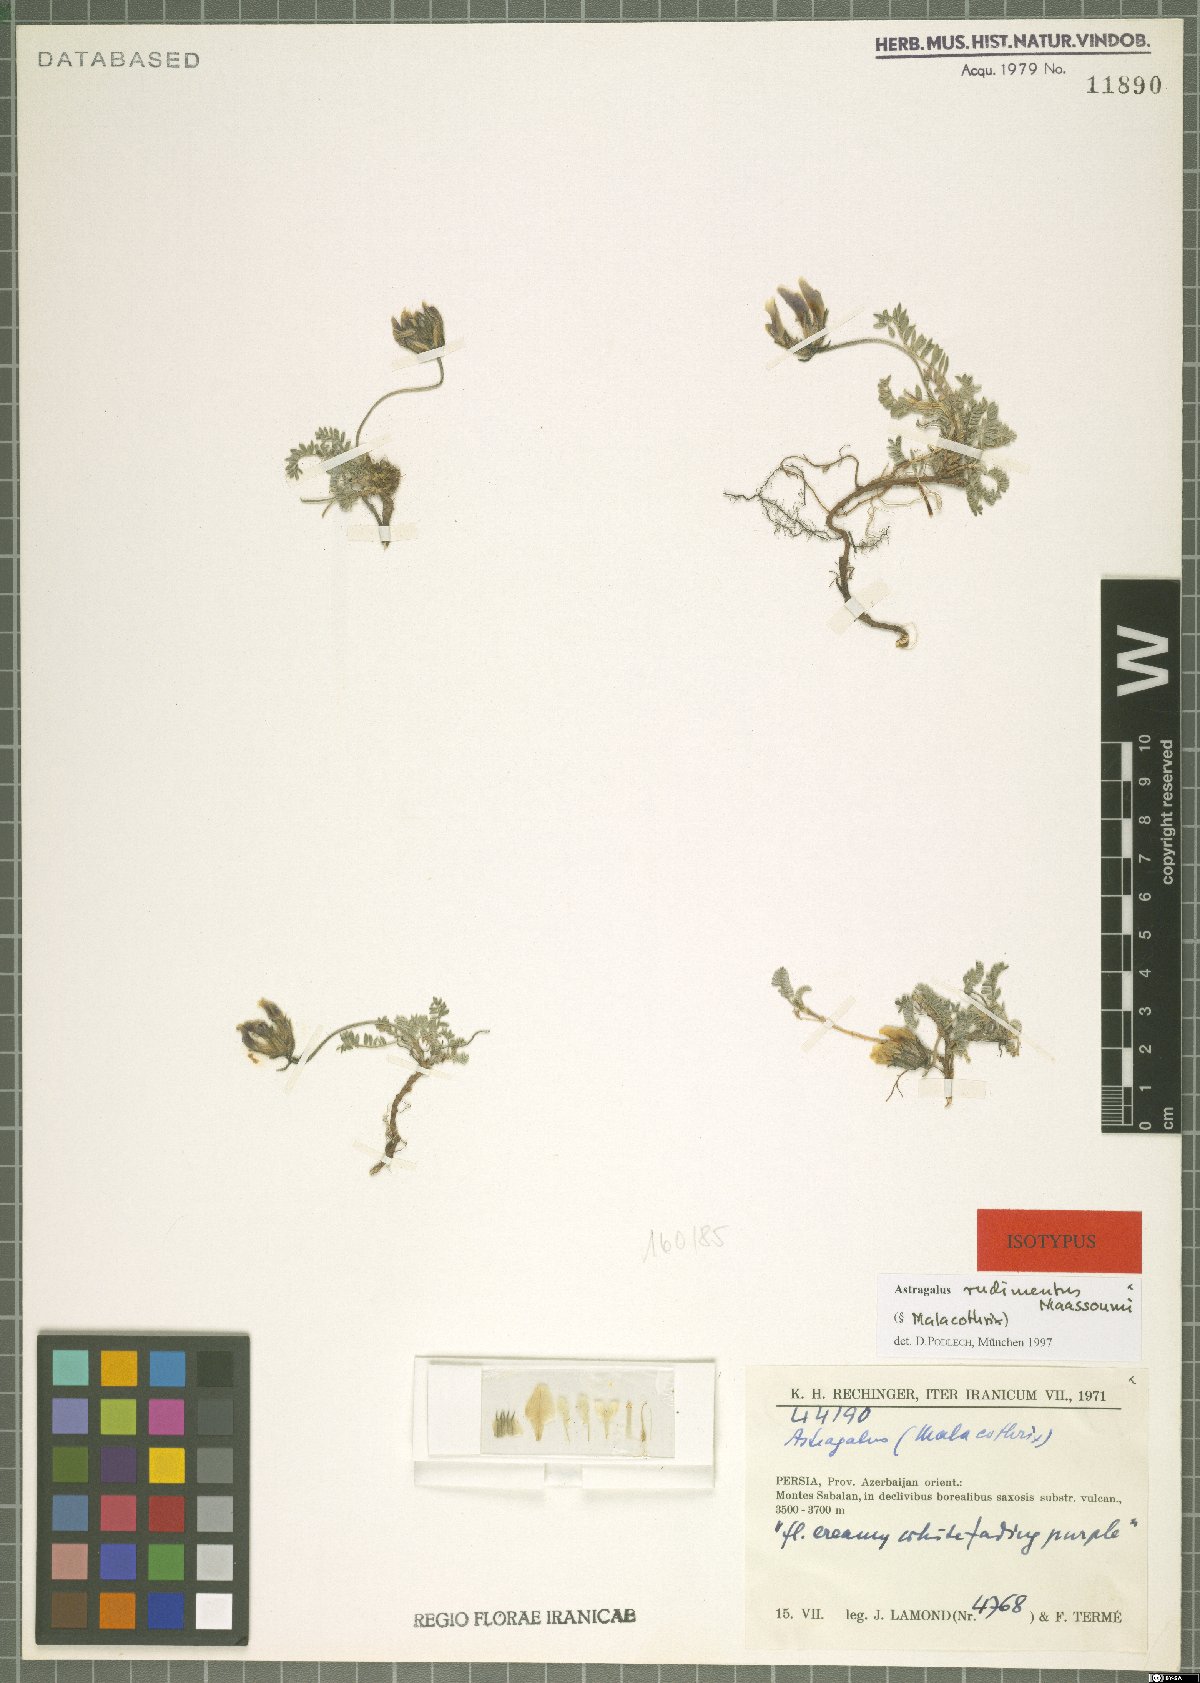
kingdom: Plantae
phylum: Tracheophyta
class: Magnoliopsida
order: Fabales
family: Fabaceae
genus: Astragalus
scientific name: Astragalus rudimentus
